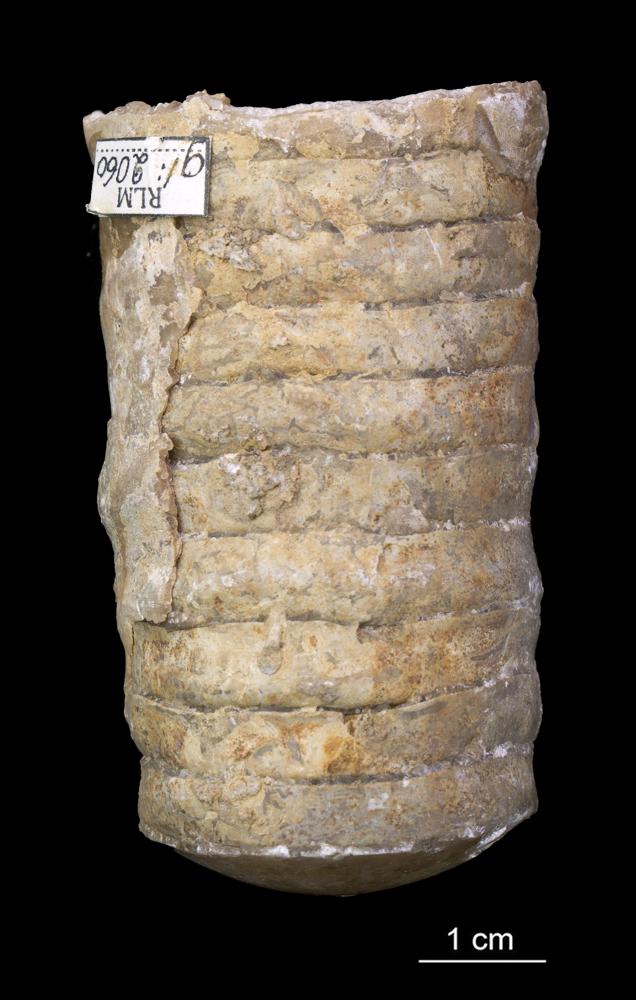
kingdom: Animalia
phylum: Mollusca
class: Cephalopoda
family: Estonioceratidae
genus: Estonioceras
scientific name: Estonioceras
